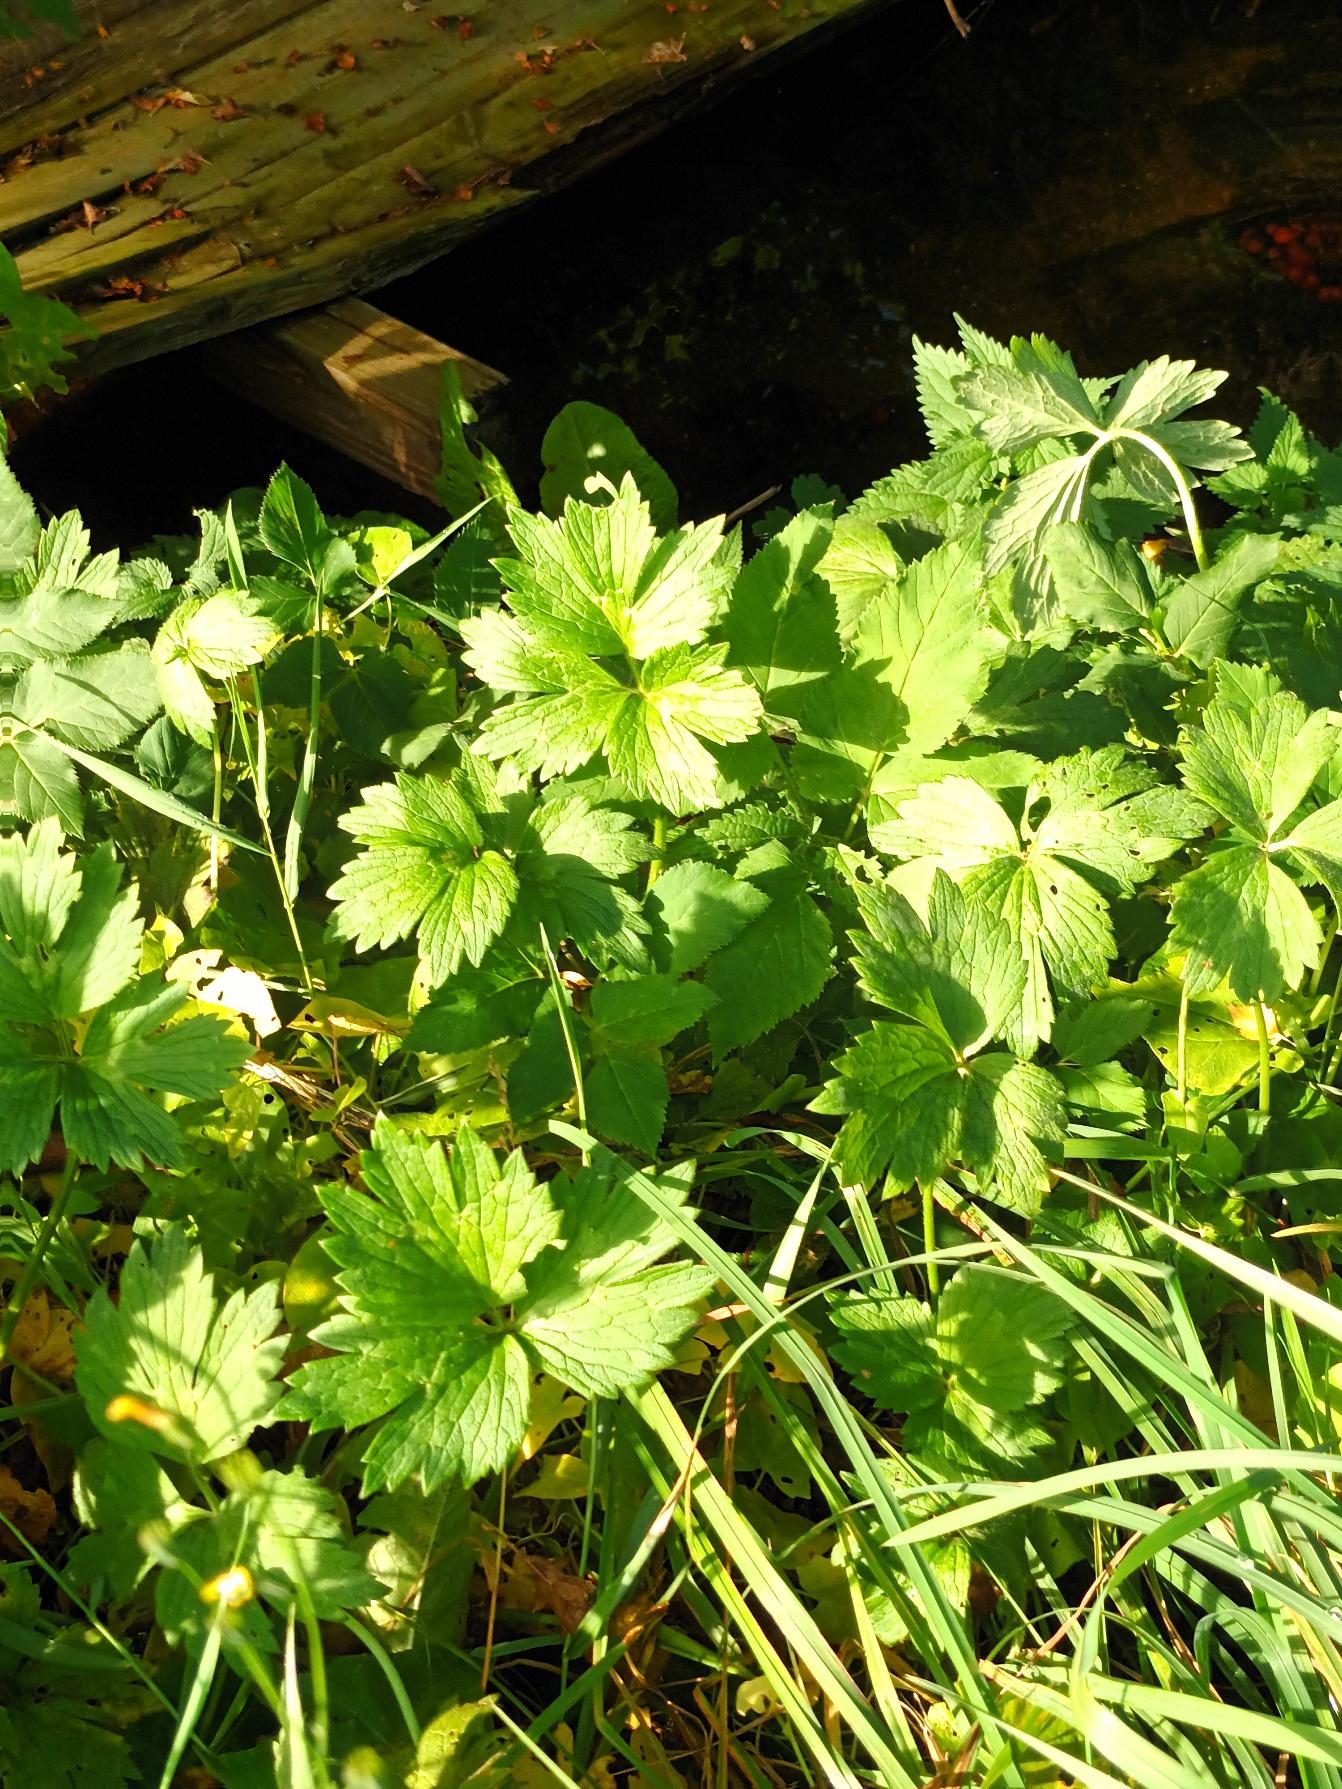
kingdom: Plantae
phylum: Tracheophyta
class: Magnoliopsida
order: Ranunculales
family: Ranunculaceae
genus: Ranunculus
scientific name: Ranunculus repens
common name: Lav ranunkel
